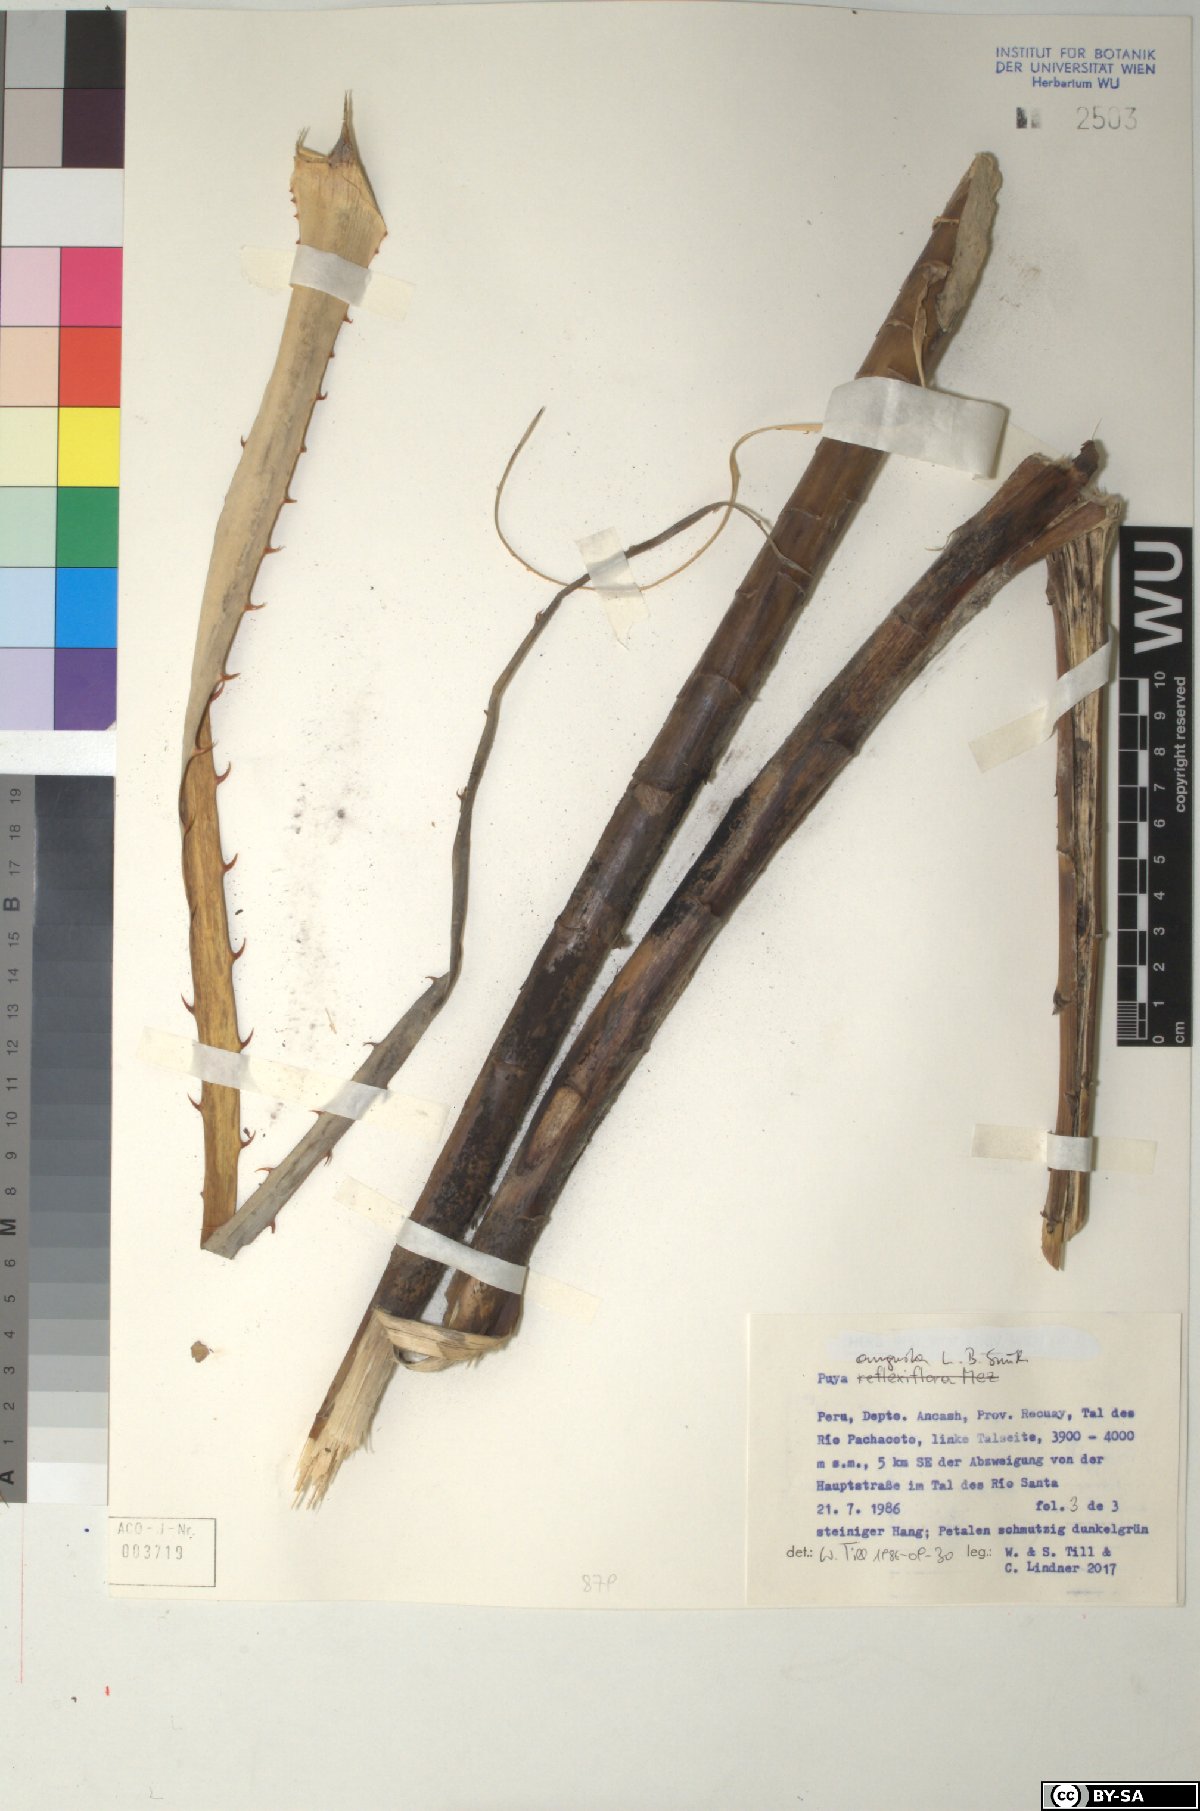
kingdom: Plantae
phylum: Tracheophyta
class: Liliopsida
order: Poales
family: Bromeliaceae
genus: Puya
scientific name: Puya angusta
